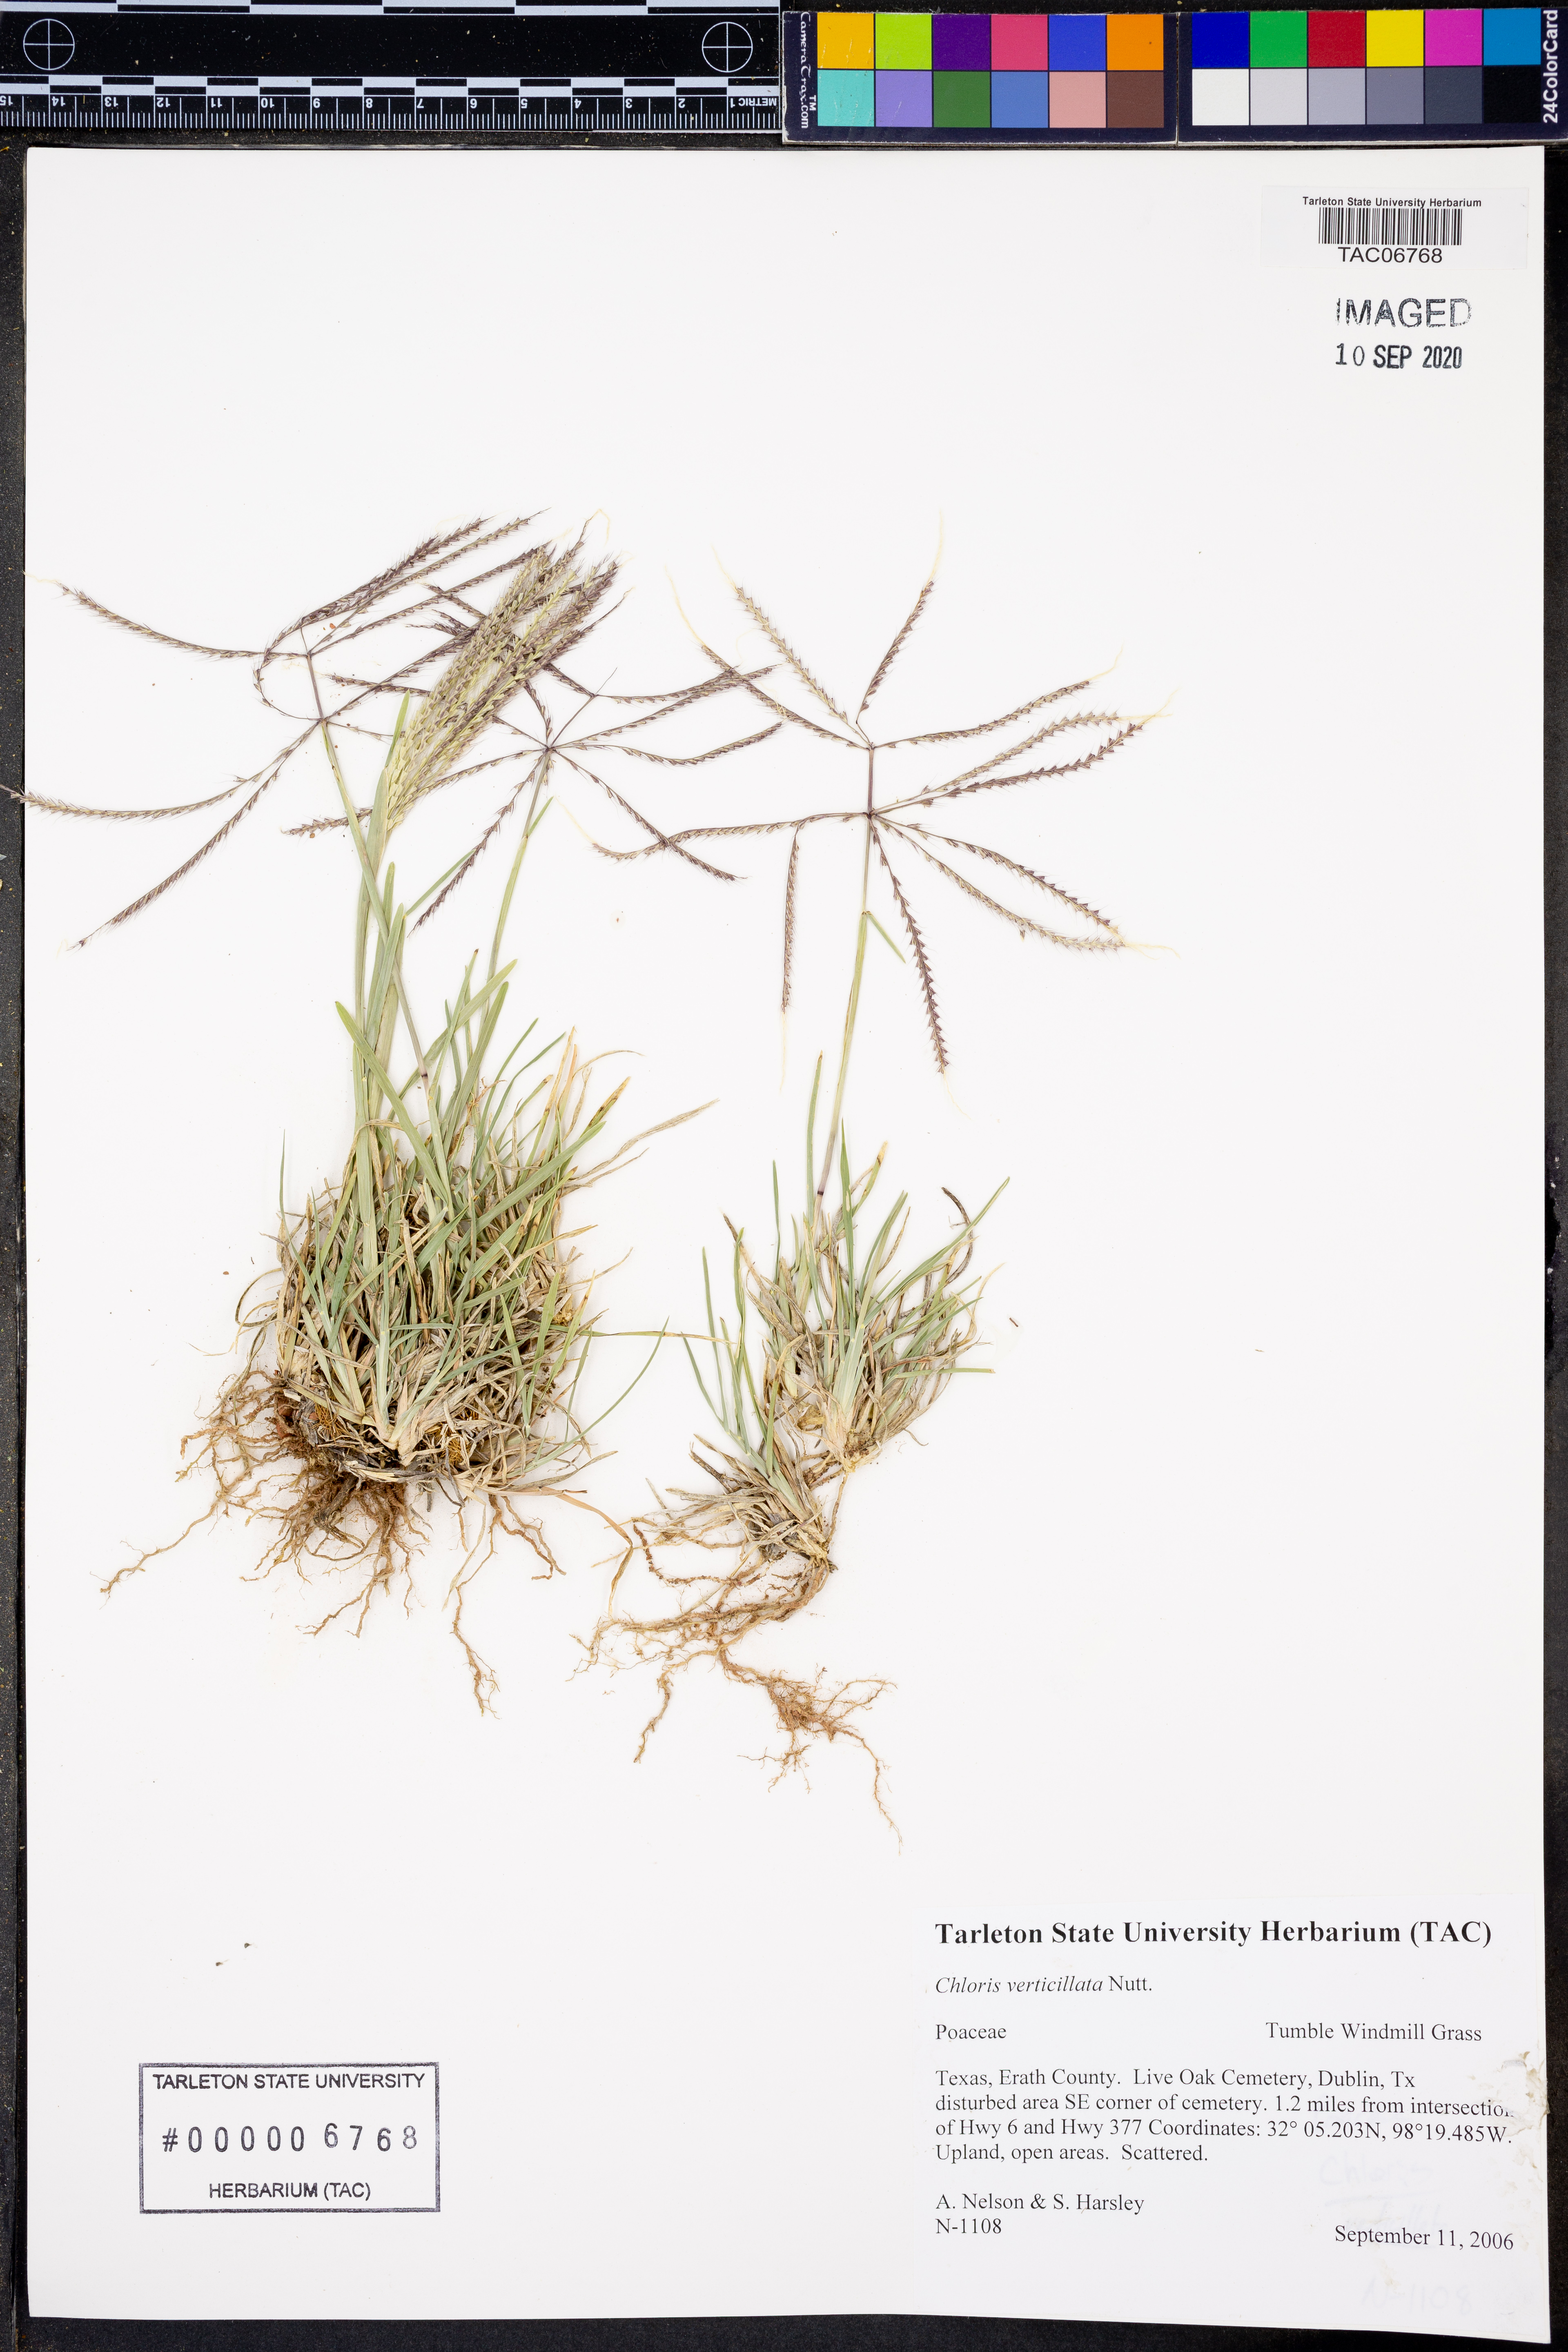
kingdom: Plantae
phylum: Tracheophyta
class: Liliopsida
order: Poales
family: Poaceae
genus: Chloris
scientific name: Chloris verticillata
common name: Tumble windmill grass
